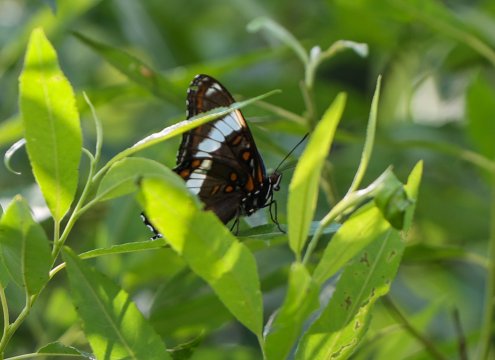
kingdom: Animalia
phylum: Arthropoda
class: Insecta
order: Lepidoptera
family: Nymphalidae
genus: Limenitis
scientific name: Limenitis arthemis
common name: Red-spotted Admiral
